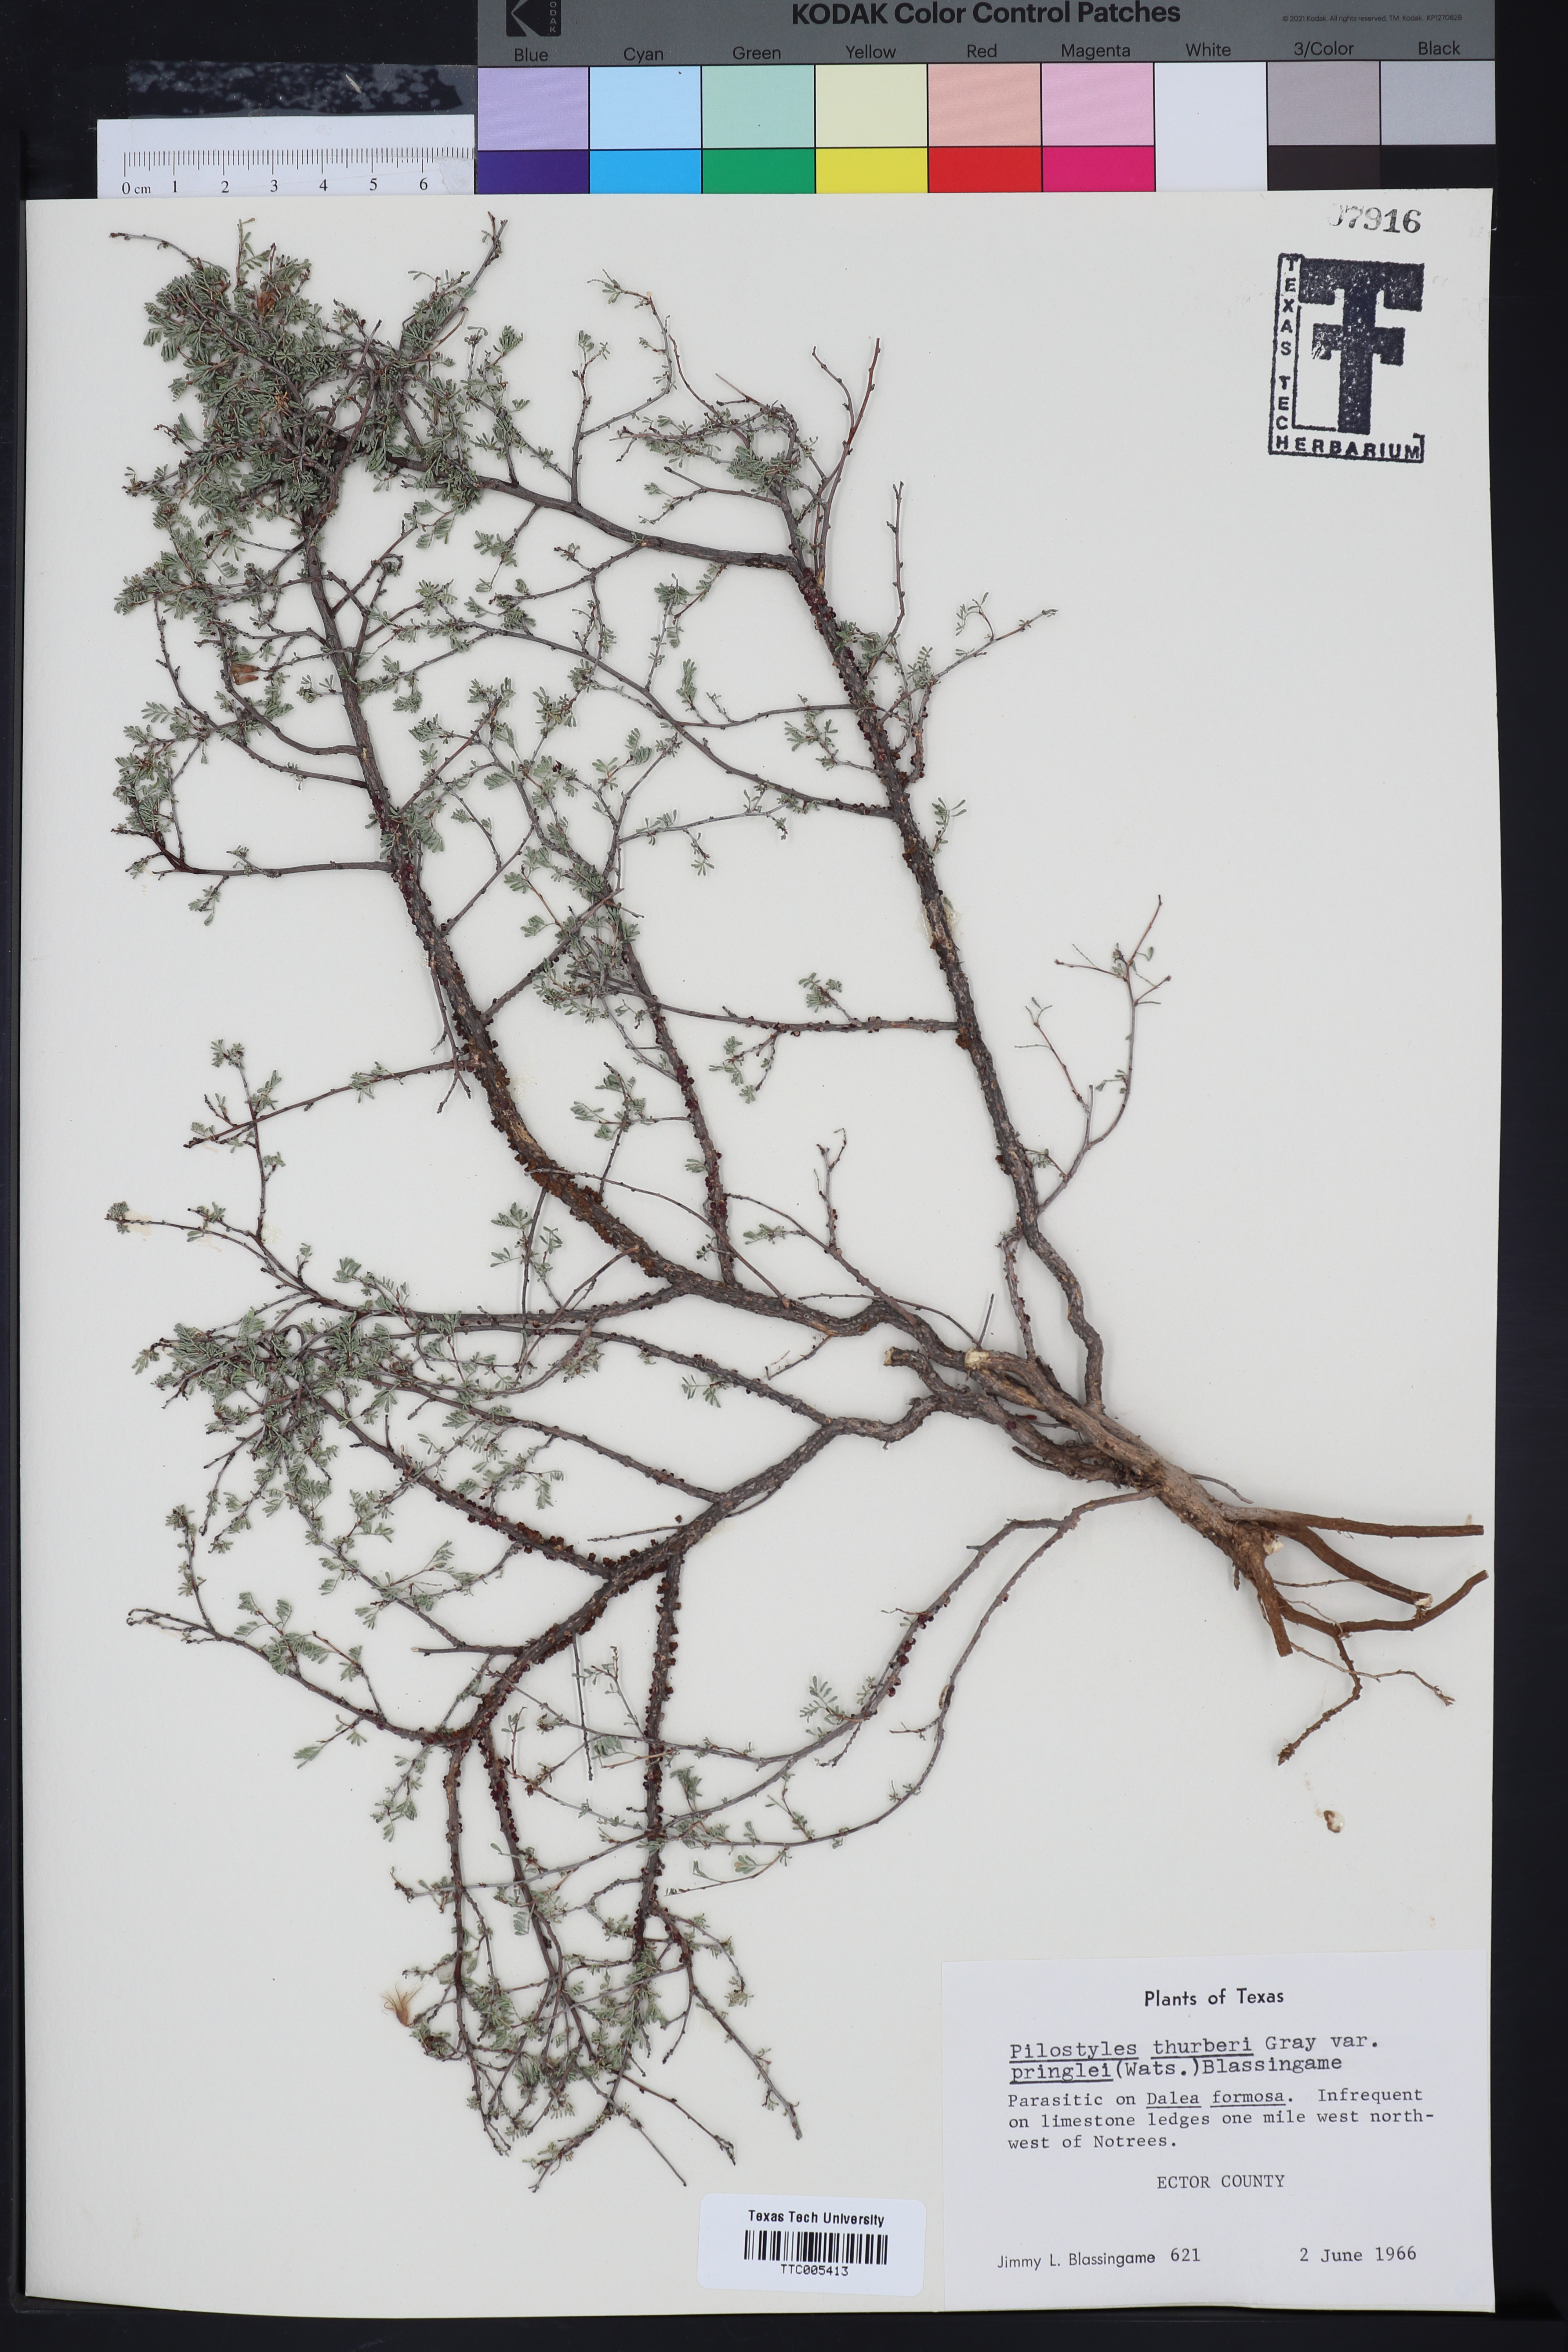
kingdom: Plantae
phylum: Tracheophyta
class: Magnoliopsida
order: Cucurbitales
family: Apodanthaceae
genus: Pilostyles
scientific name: Pilostyles thurberi
